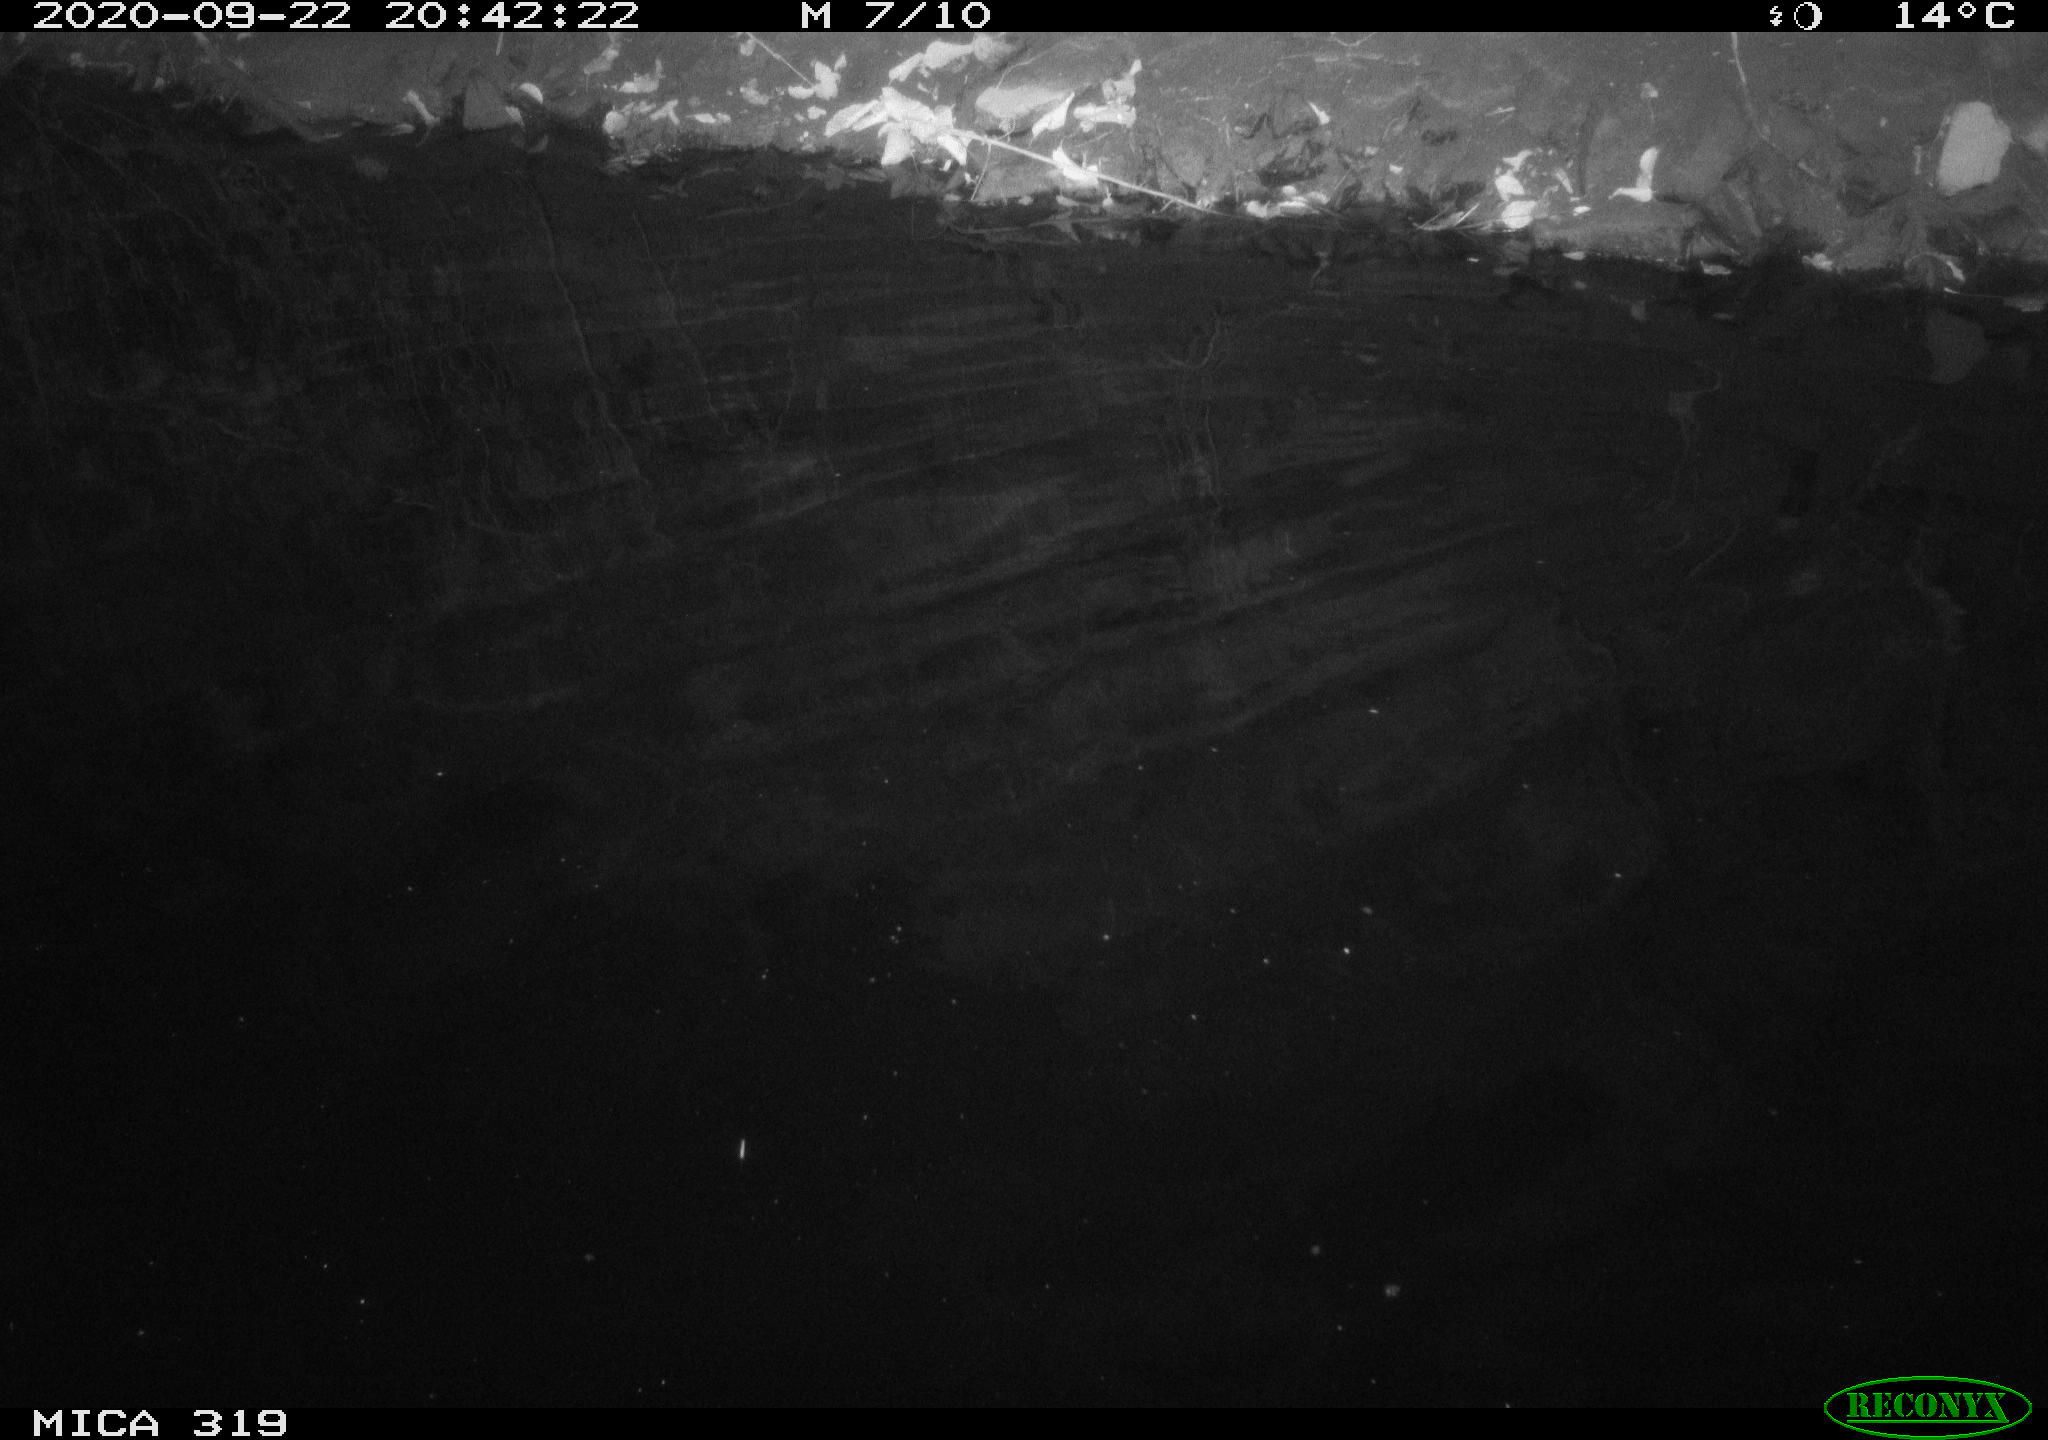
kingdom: Animalia
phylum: Chordata
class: Aves
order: Anseriformes
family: Anatidae
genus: Anas
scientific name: Anas platyrhynchos
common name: Mallard
